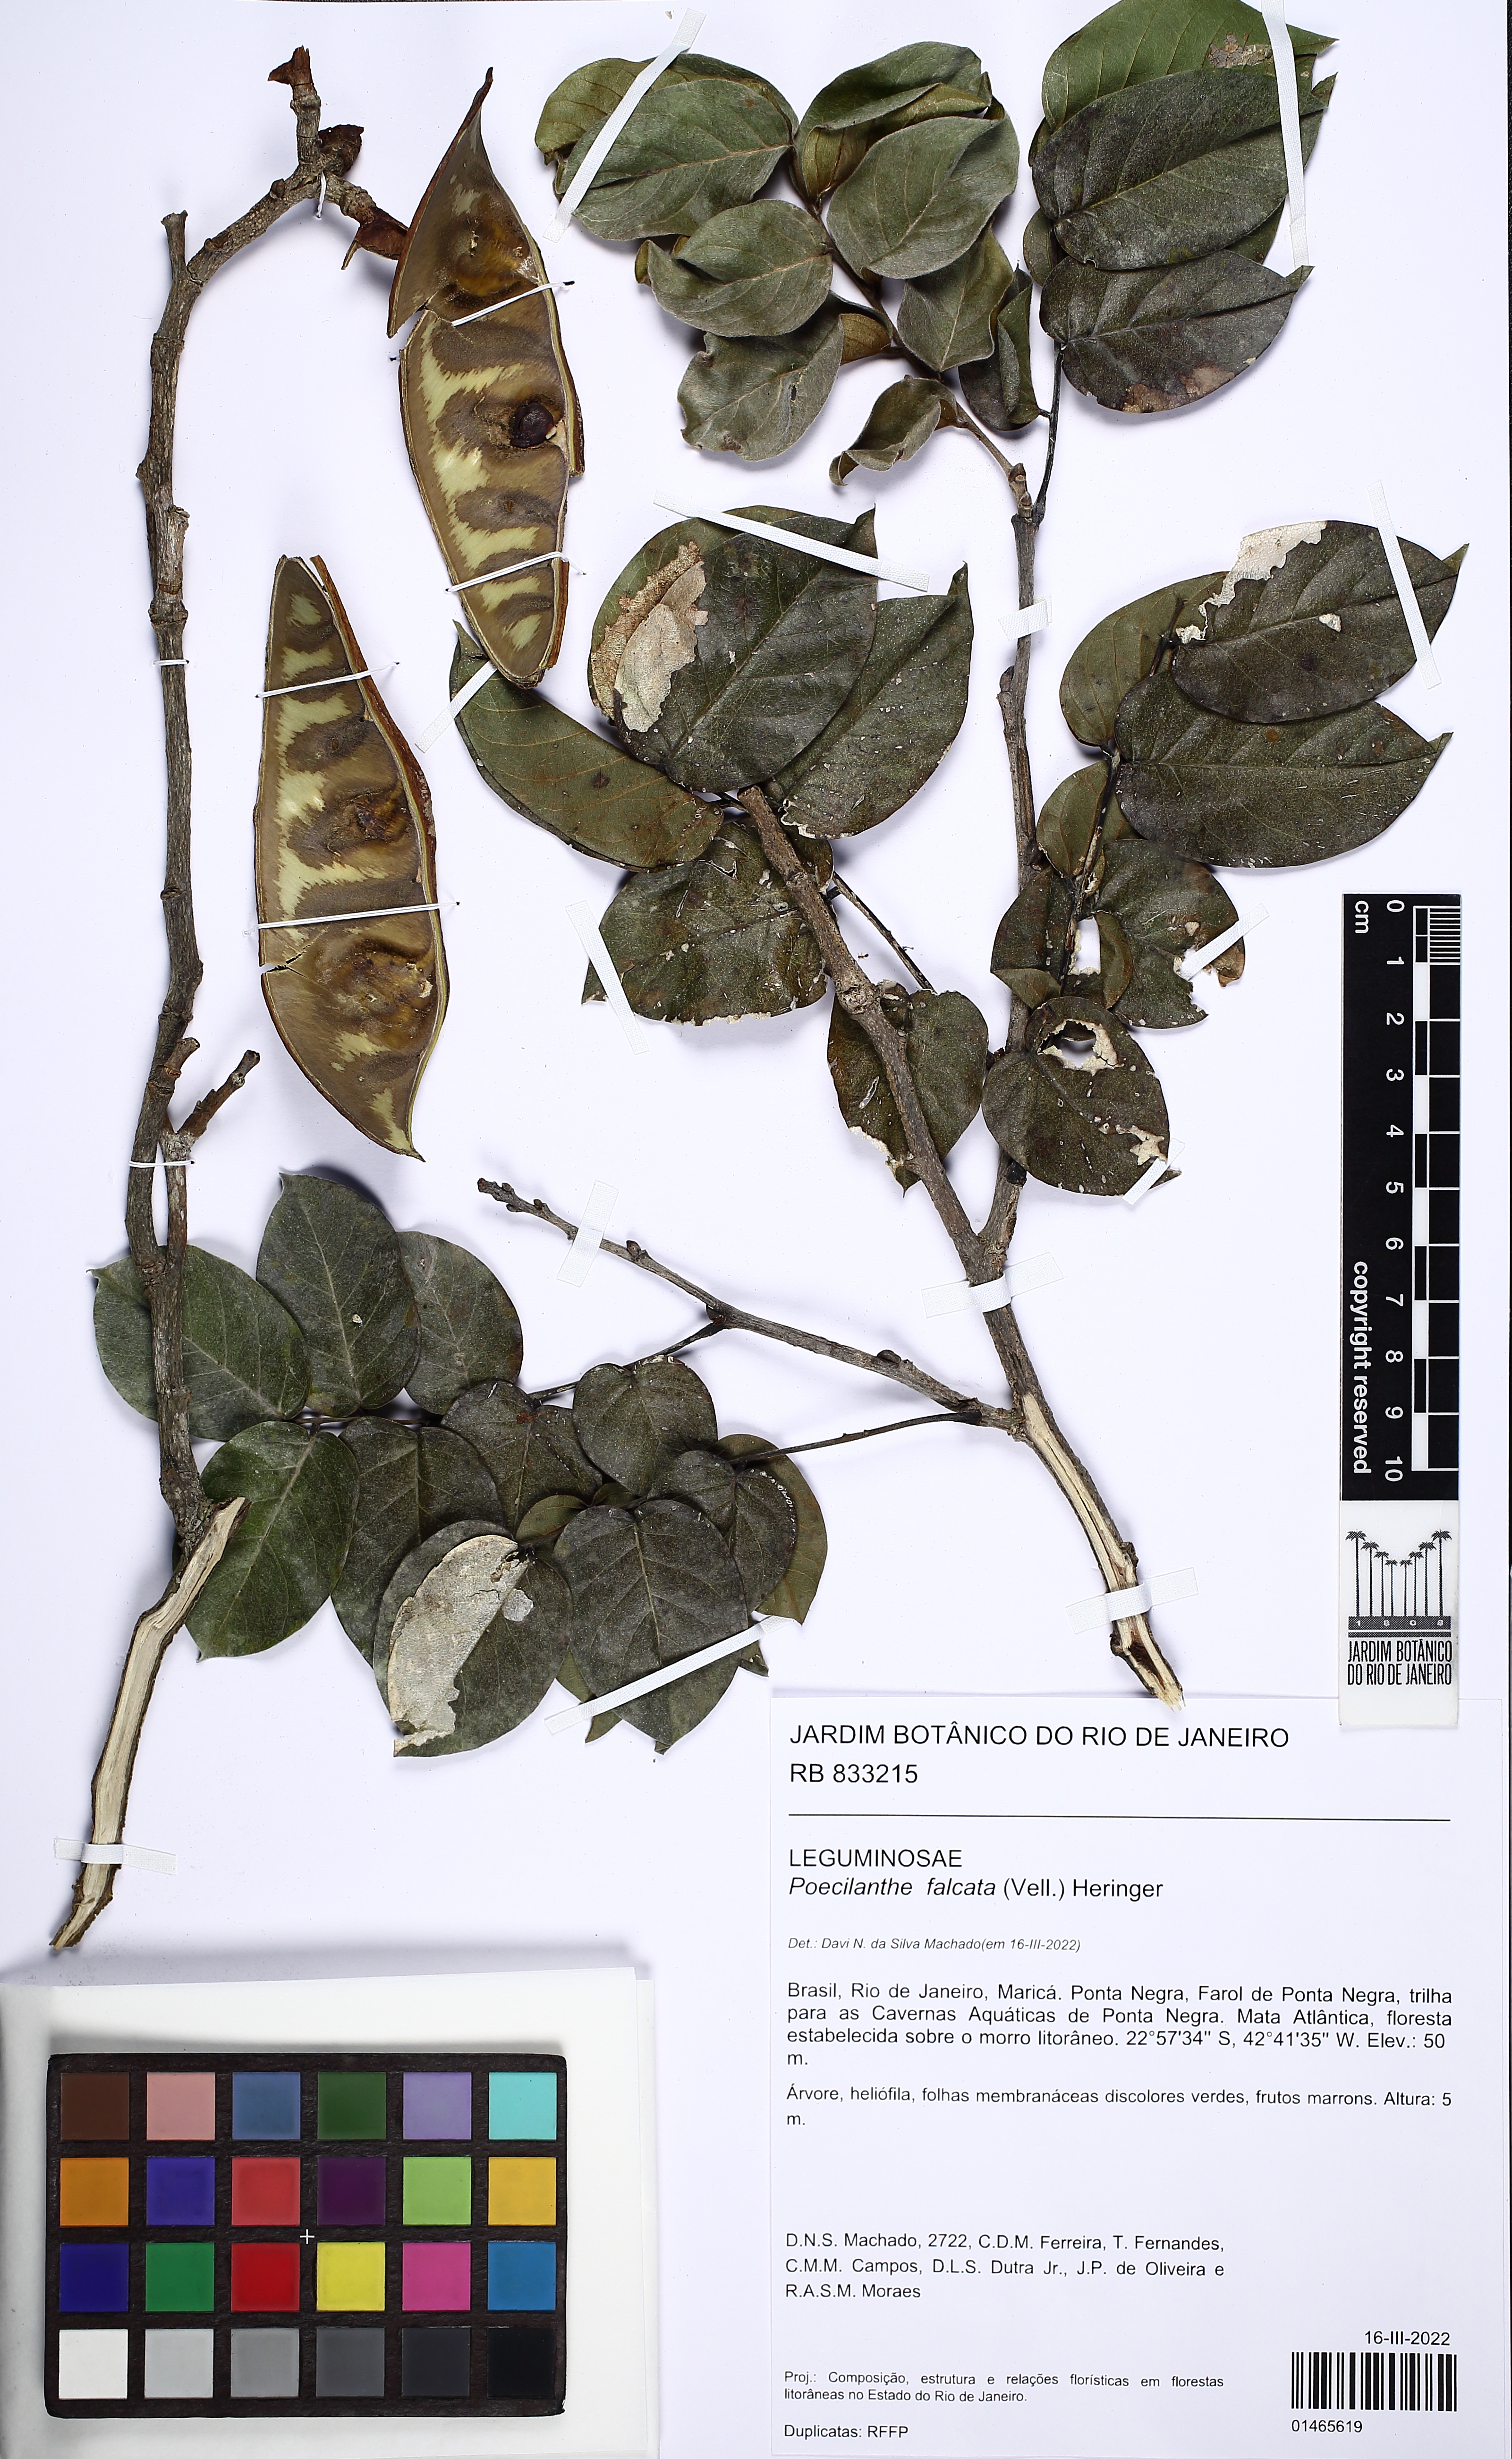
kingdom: Plantae
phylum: Tracheophyta
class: Magnoliopsida
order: Fabales
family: Fabaceae
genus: Poecilanthe
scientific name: Poecilanthe falcata
